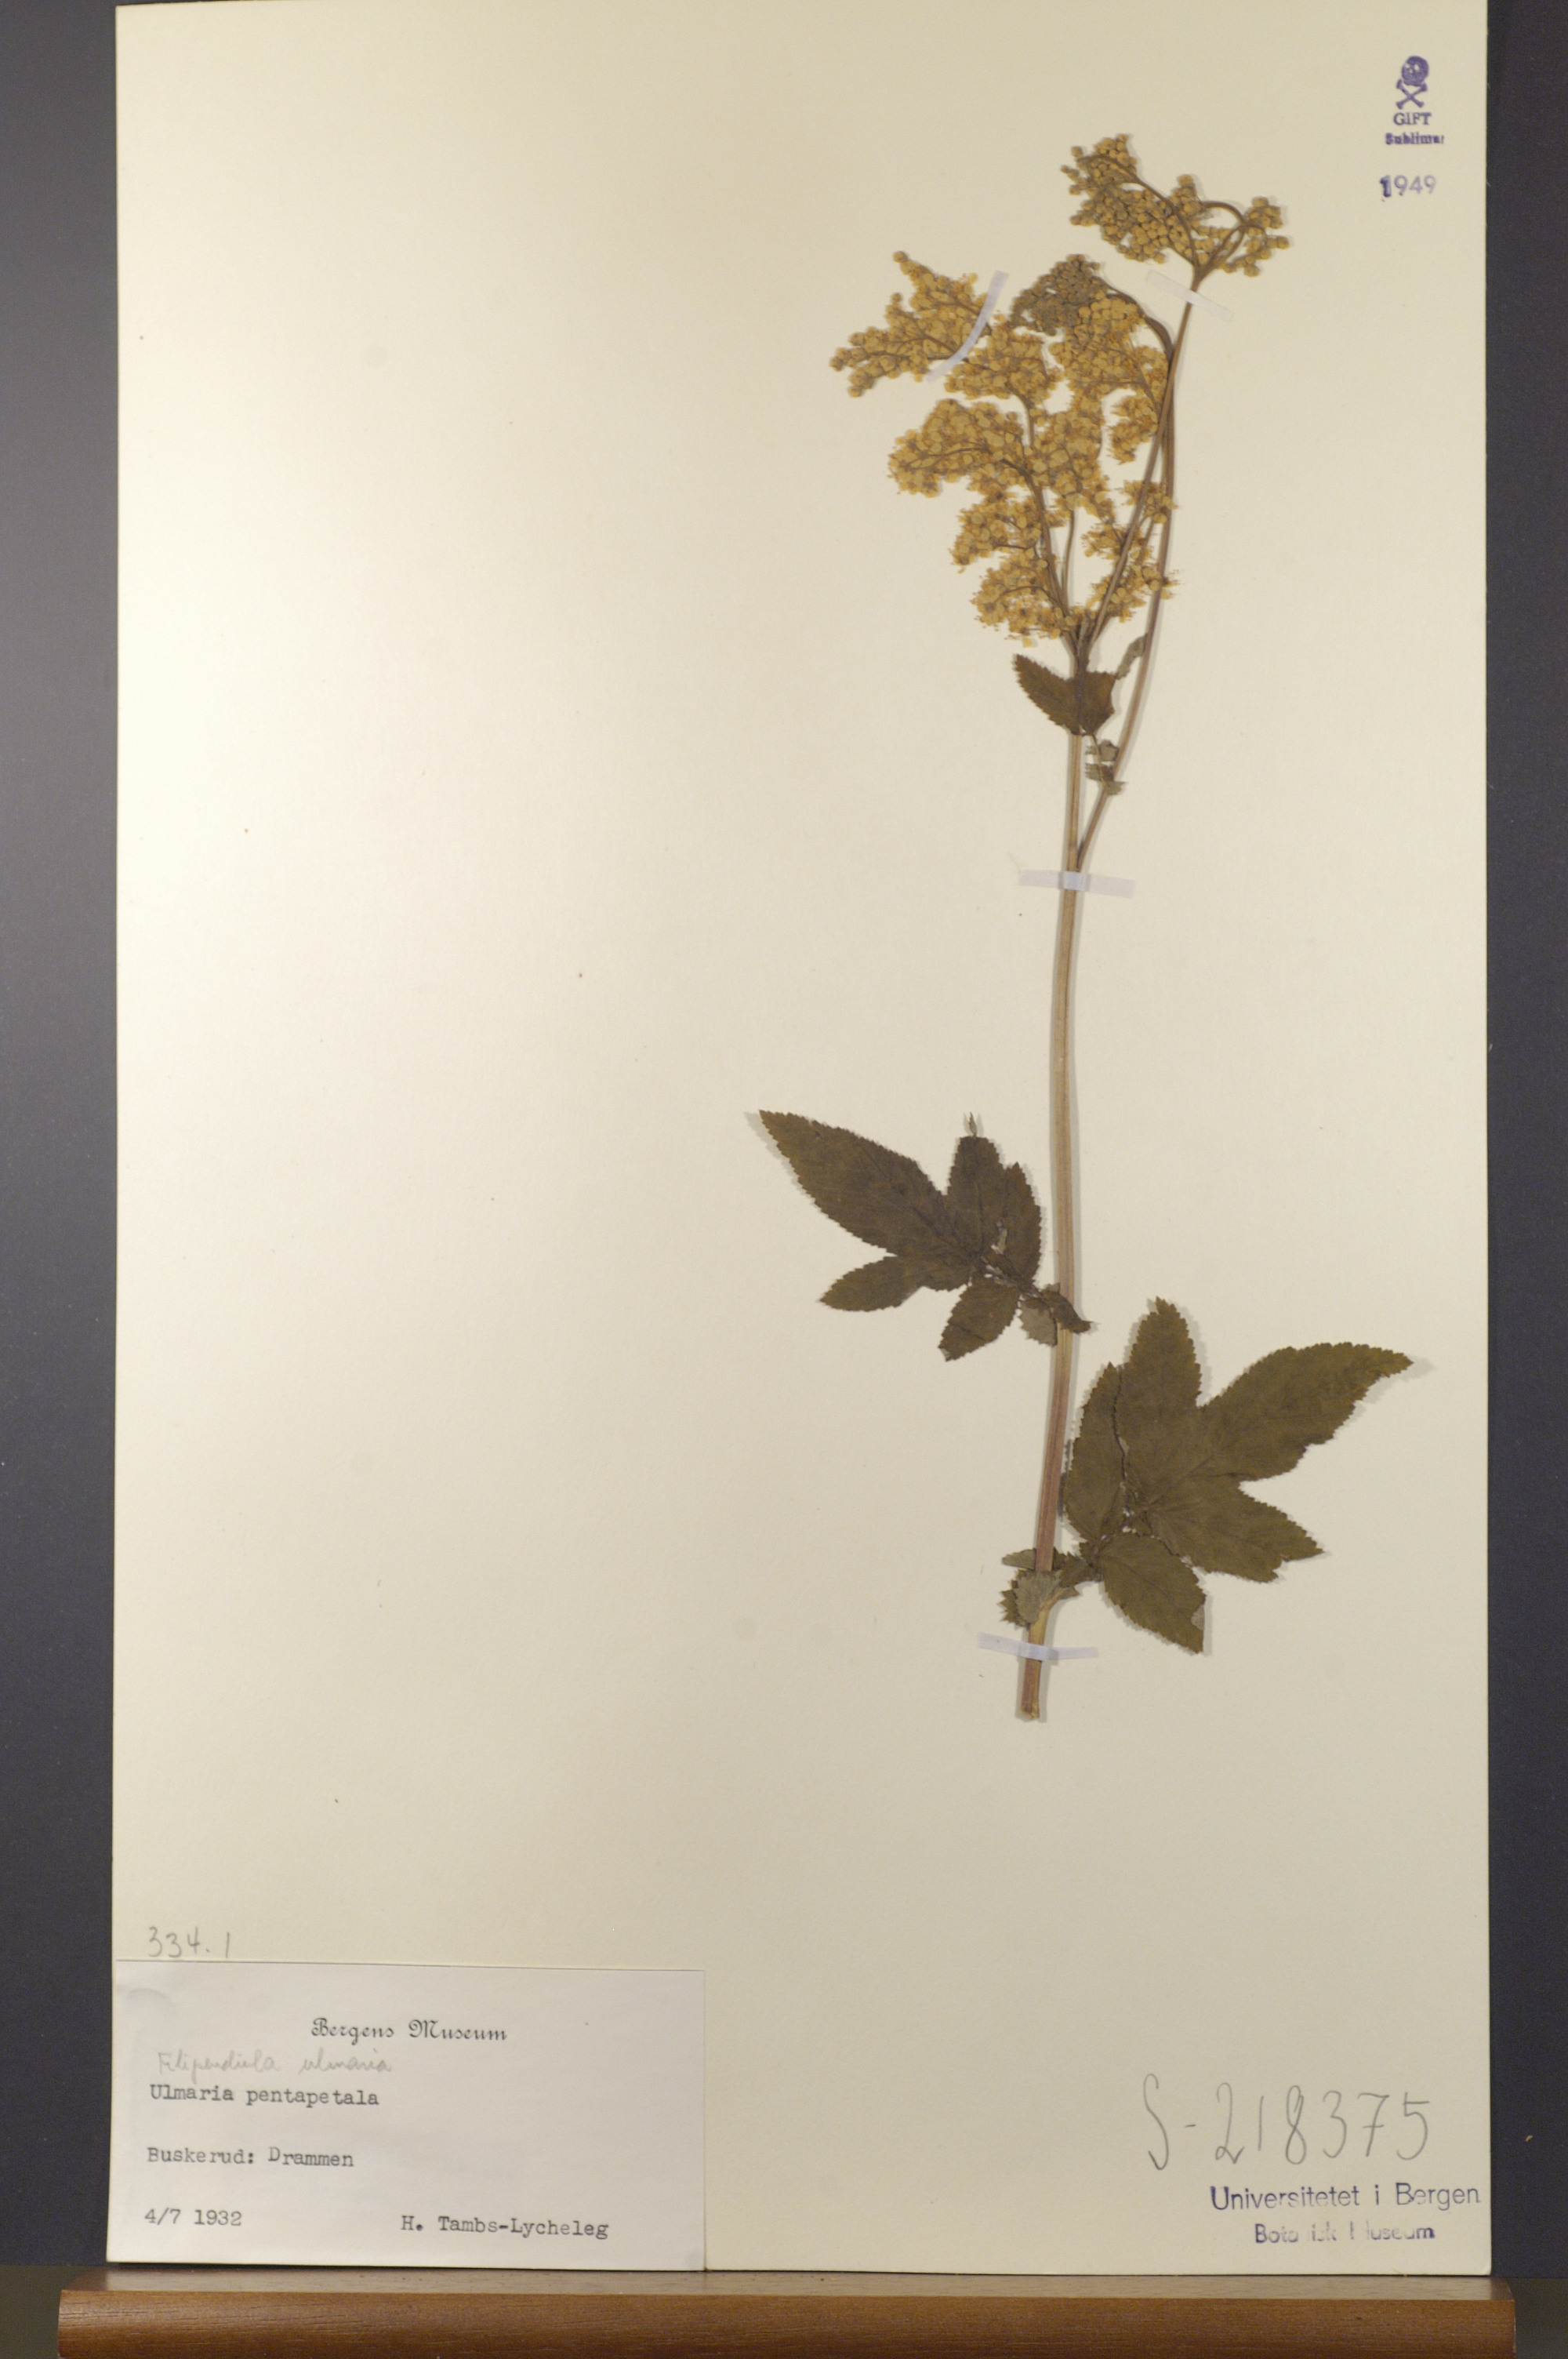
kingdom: Plantae
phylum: Tracheophyta
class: Magnoliopsida
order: Rosales
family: Rosaceae
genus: Filipendula
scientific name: Filipendula ulmaria
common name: Meadowsweet
